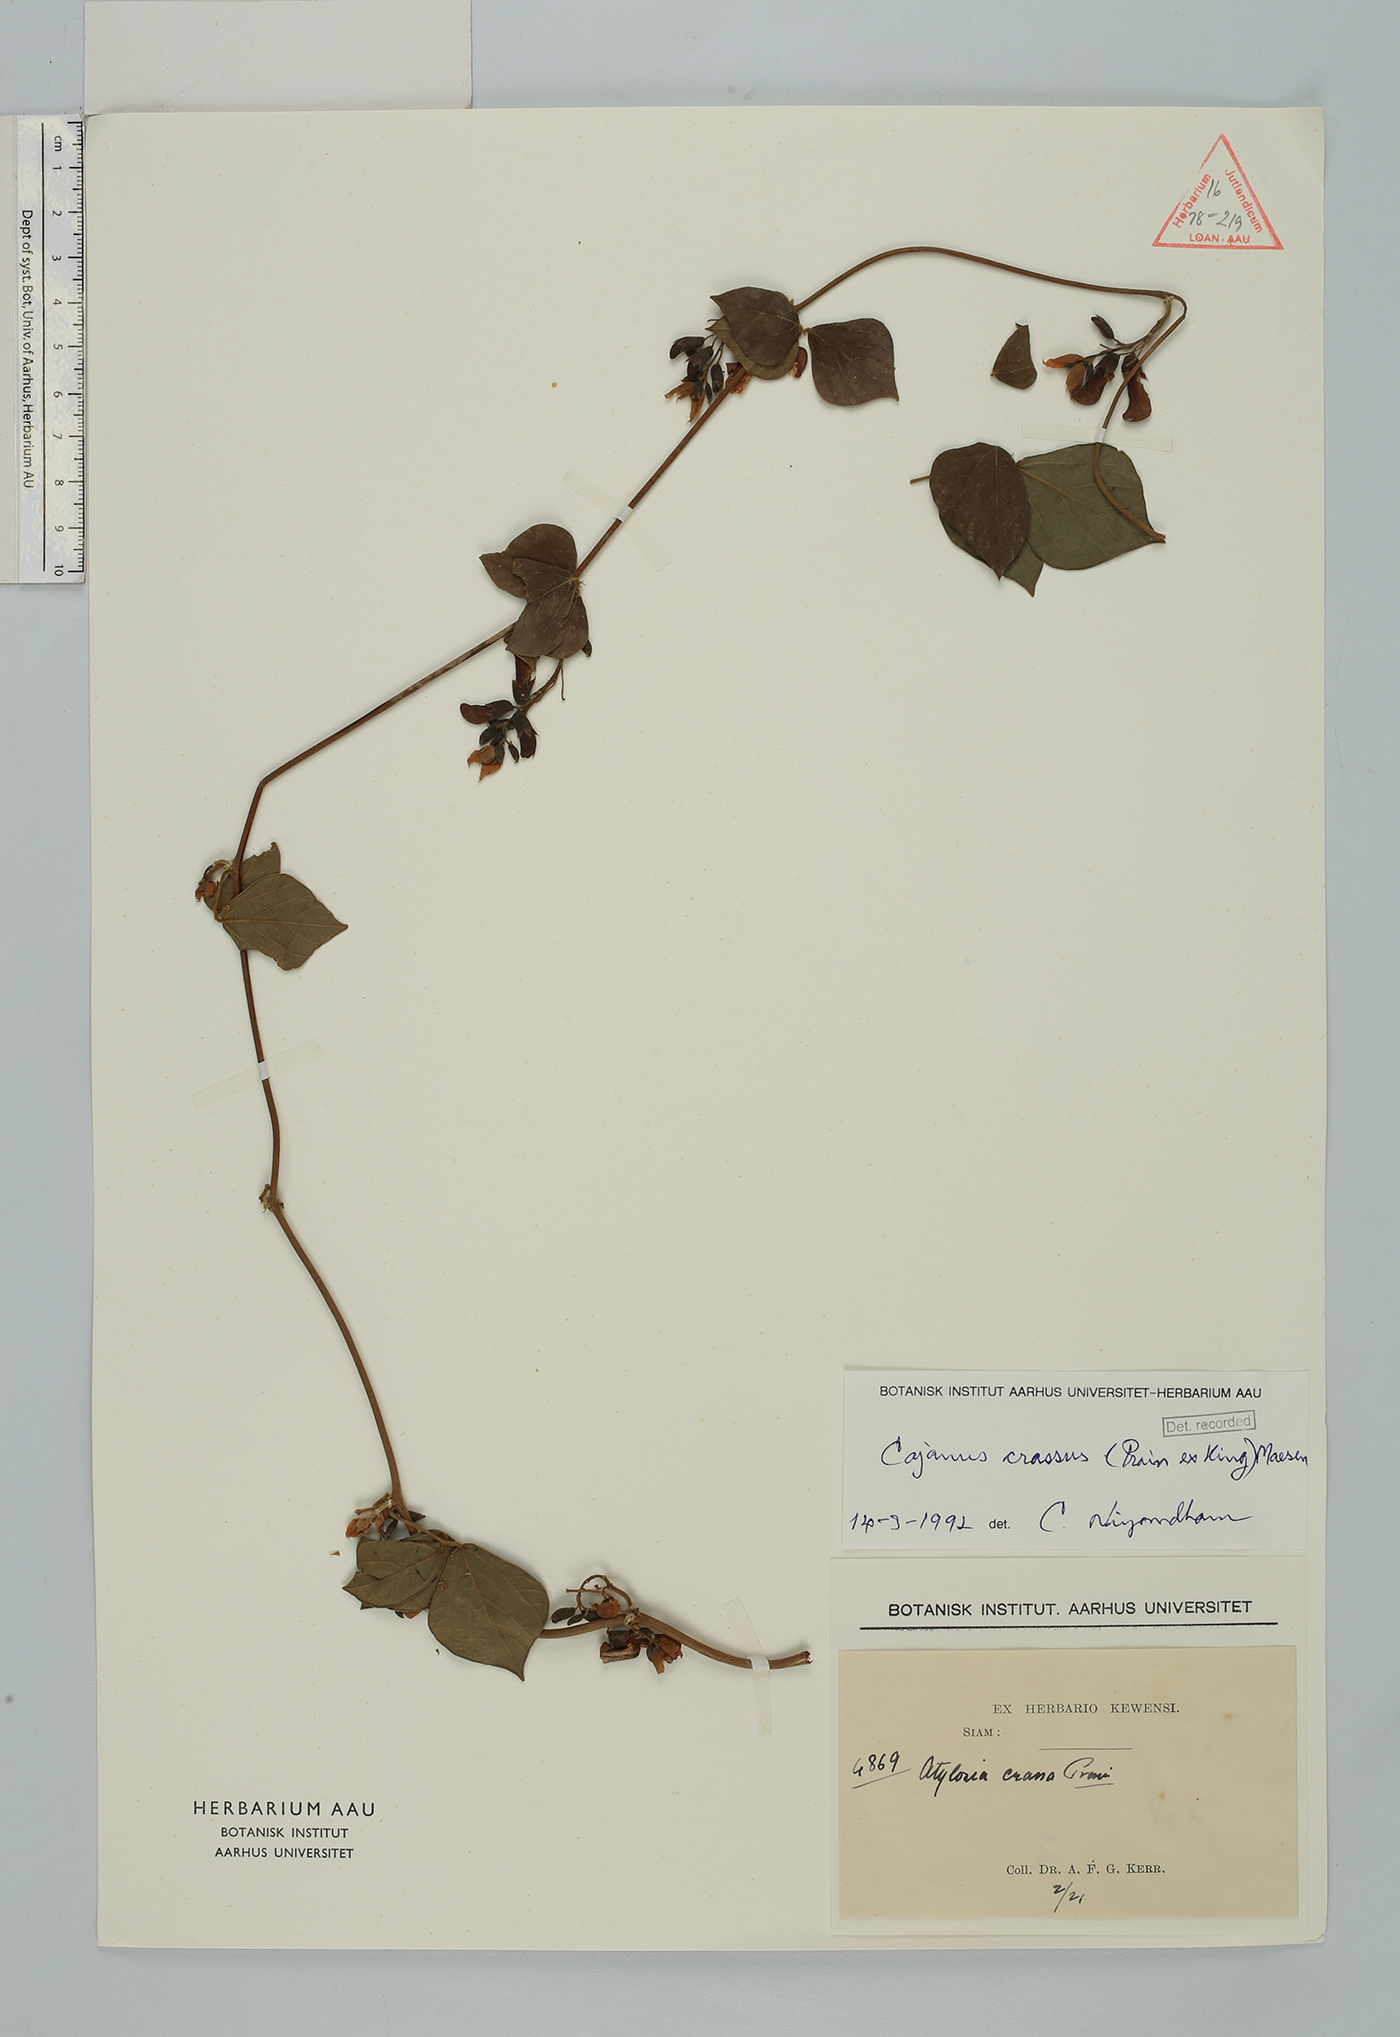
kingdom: Plantae
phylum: Tracheophyta
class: Magnoliopsida
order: Fabales
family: Fabaceae
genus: Cajanus
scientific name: Cajanus crassus
